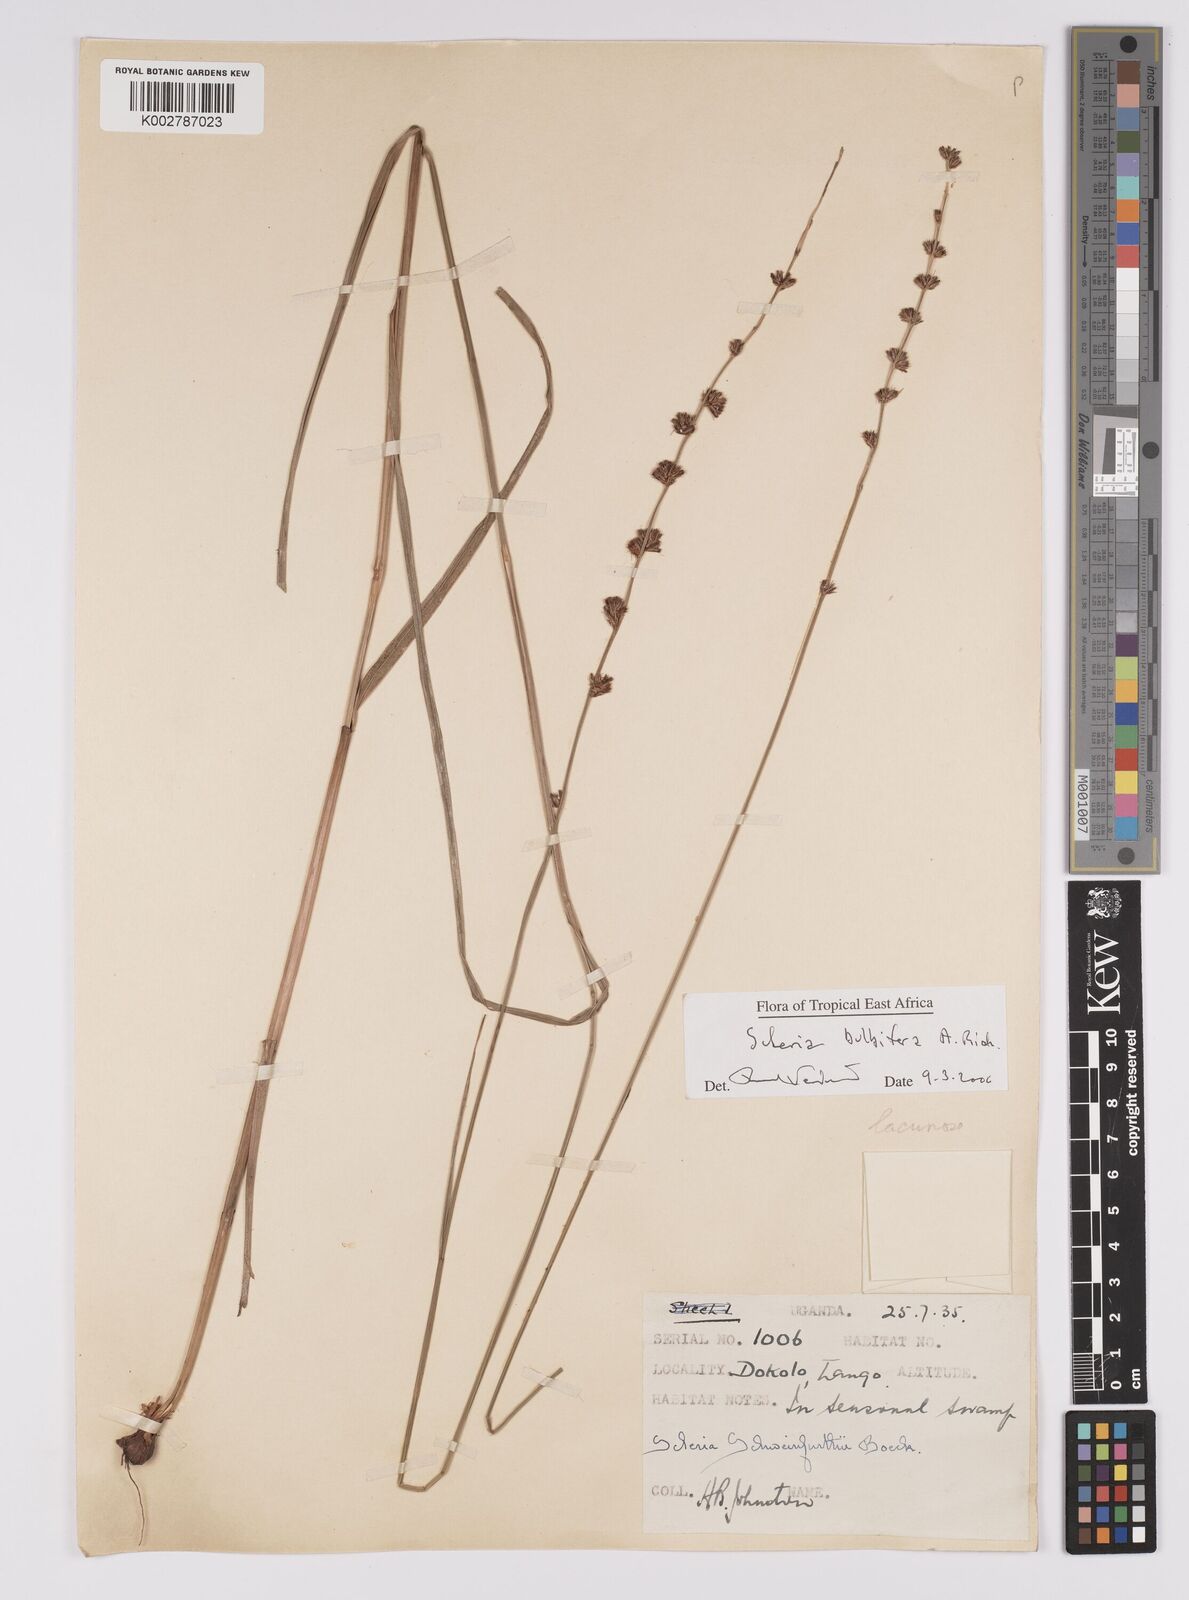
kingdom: Plantae
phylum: Tracheophyta
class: Liliopsida
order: Poales
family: Cyperaceae
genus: Scleria
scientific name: Scleria bulbifera
